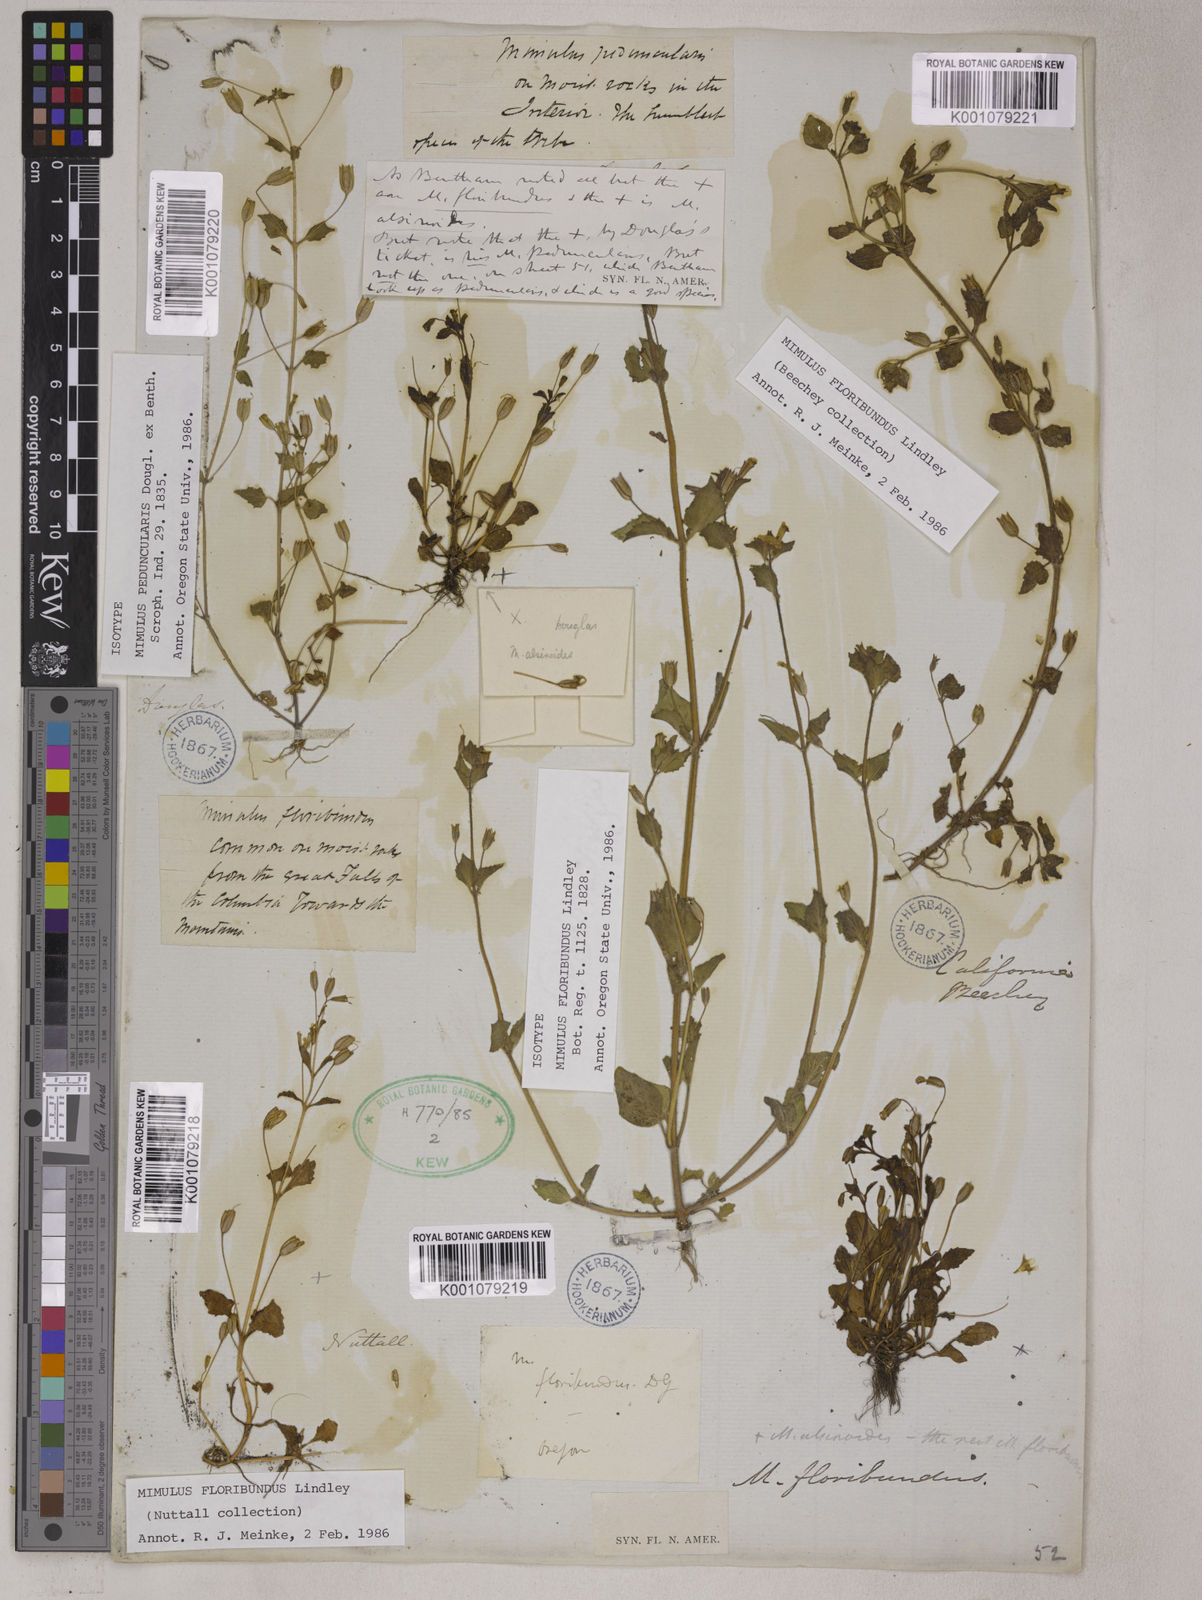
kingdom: Plantae
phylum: Tracheophyta
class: Magnoliopsida
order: Lamiales
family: Phrymaceae
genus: Erythranthe
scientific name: Erythranthe floribunda
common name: Floriferous monkeyflower
